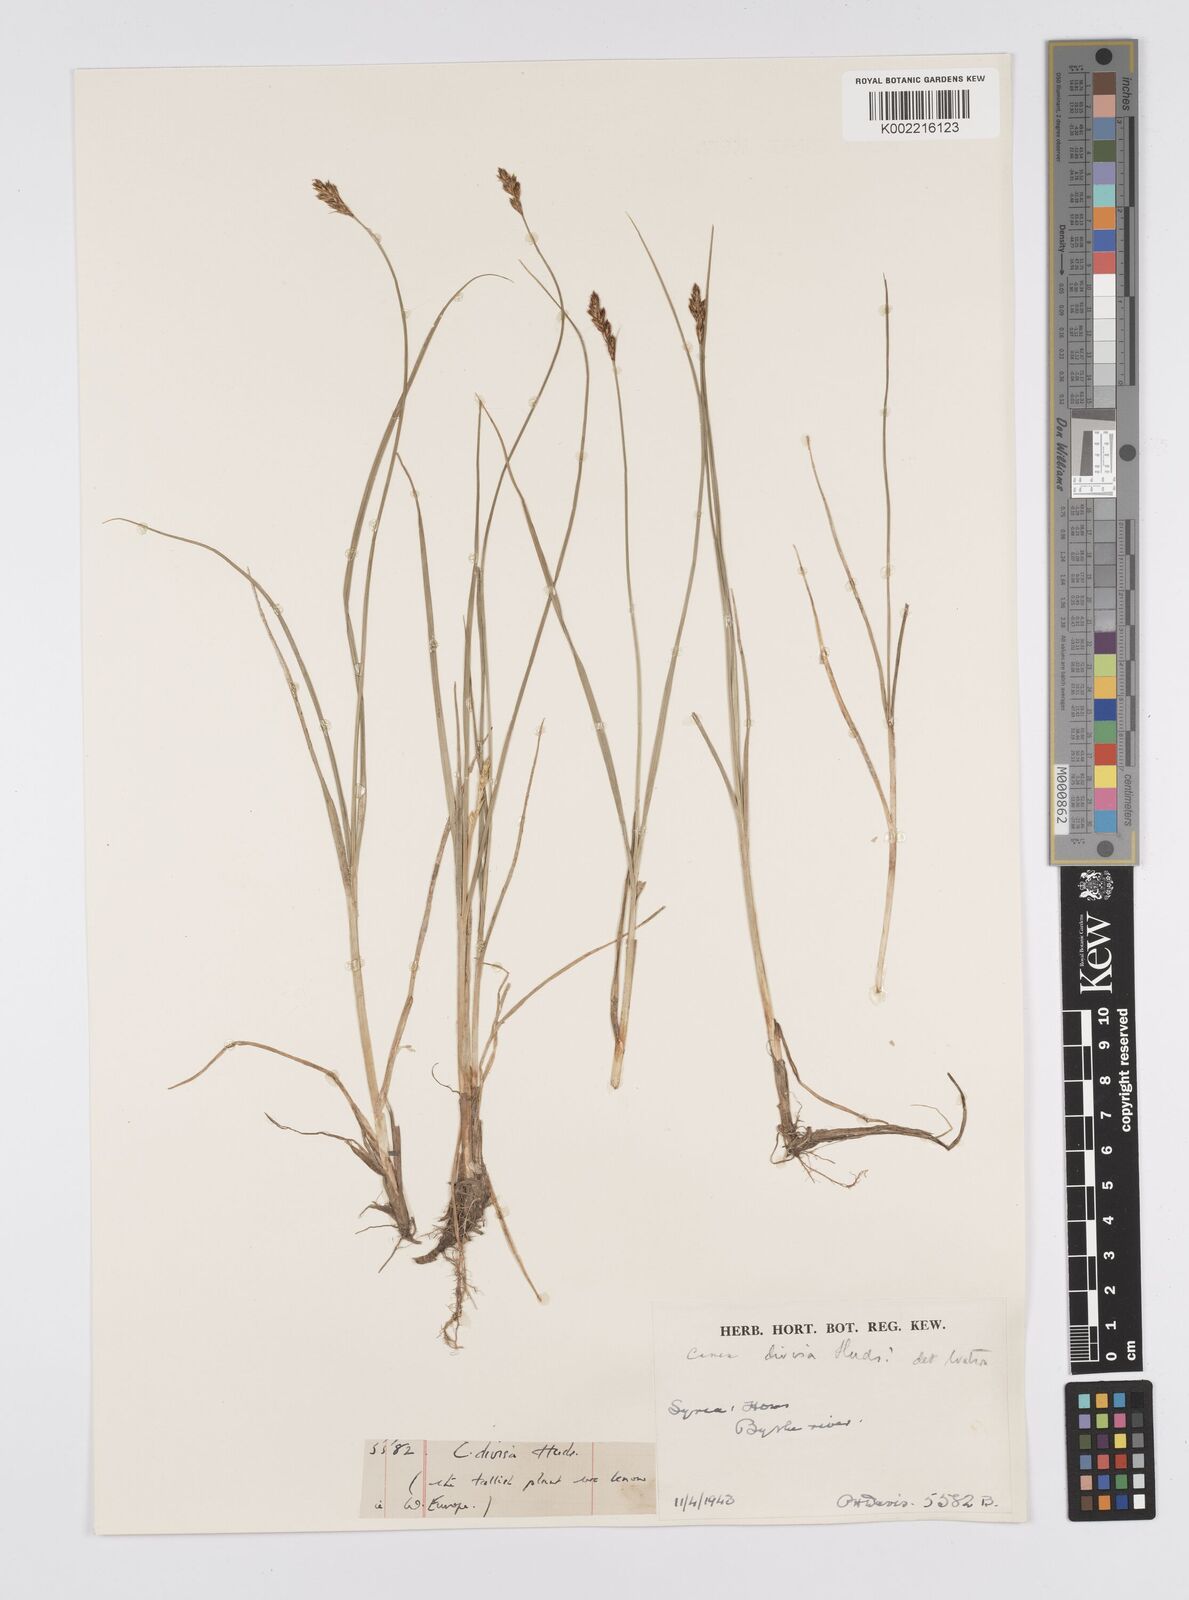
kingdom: Plantae
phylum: Tracheophyta
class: Liliopsida
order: Poales
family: Cyperaceae
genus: Carex
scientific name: Carex divisa
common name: Divided sedge
